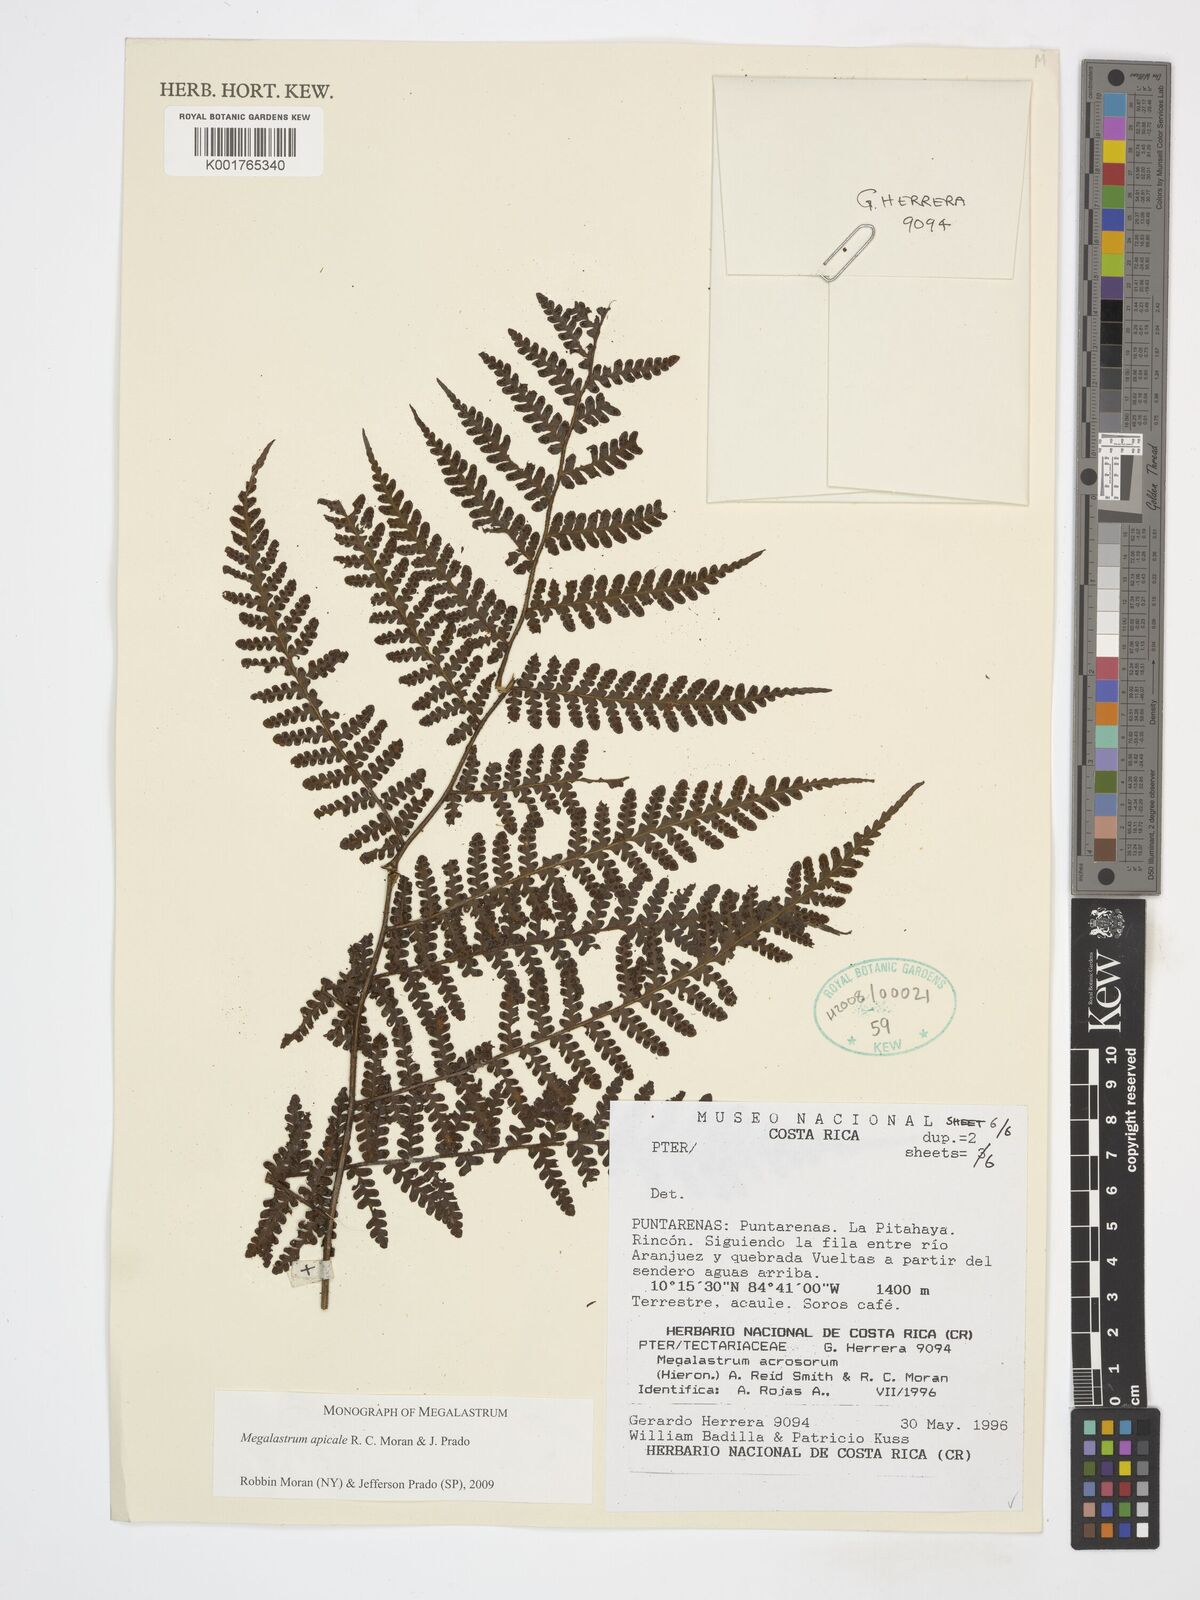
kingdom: Plantae
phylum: Tracheophyta
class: Polypodiopsida
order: Polypodiales
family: Dryopteridaceae
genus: Megalastrum
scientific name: Megalastrum apicale
